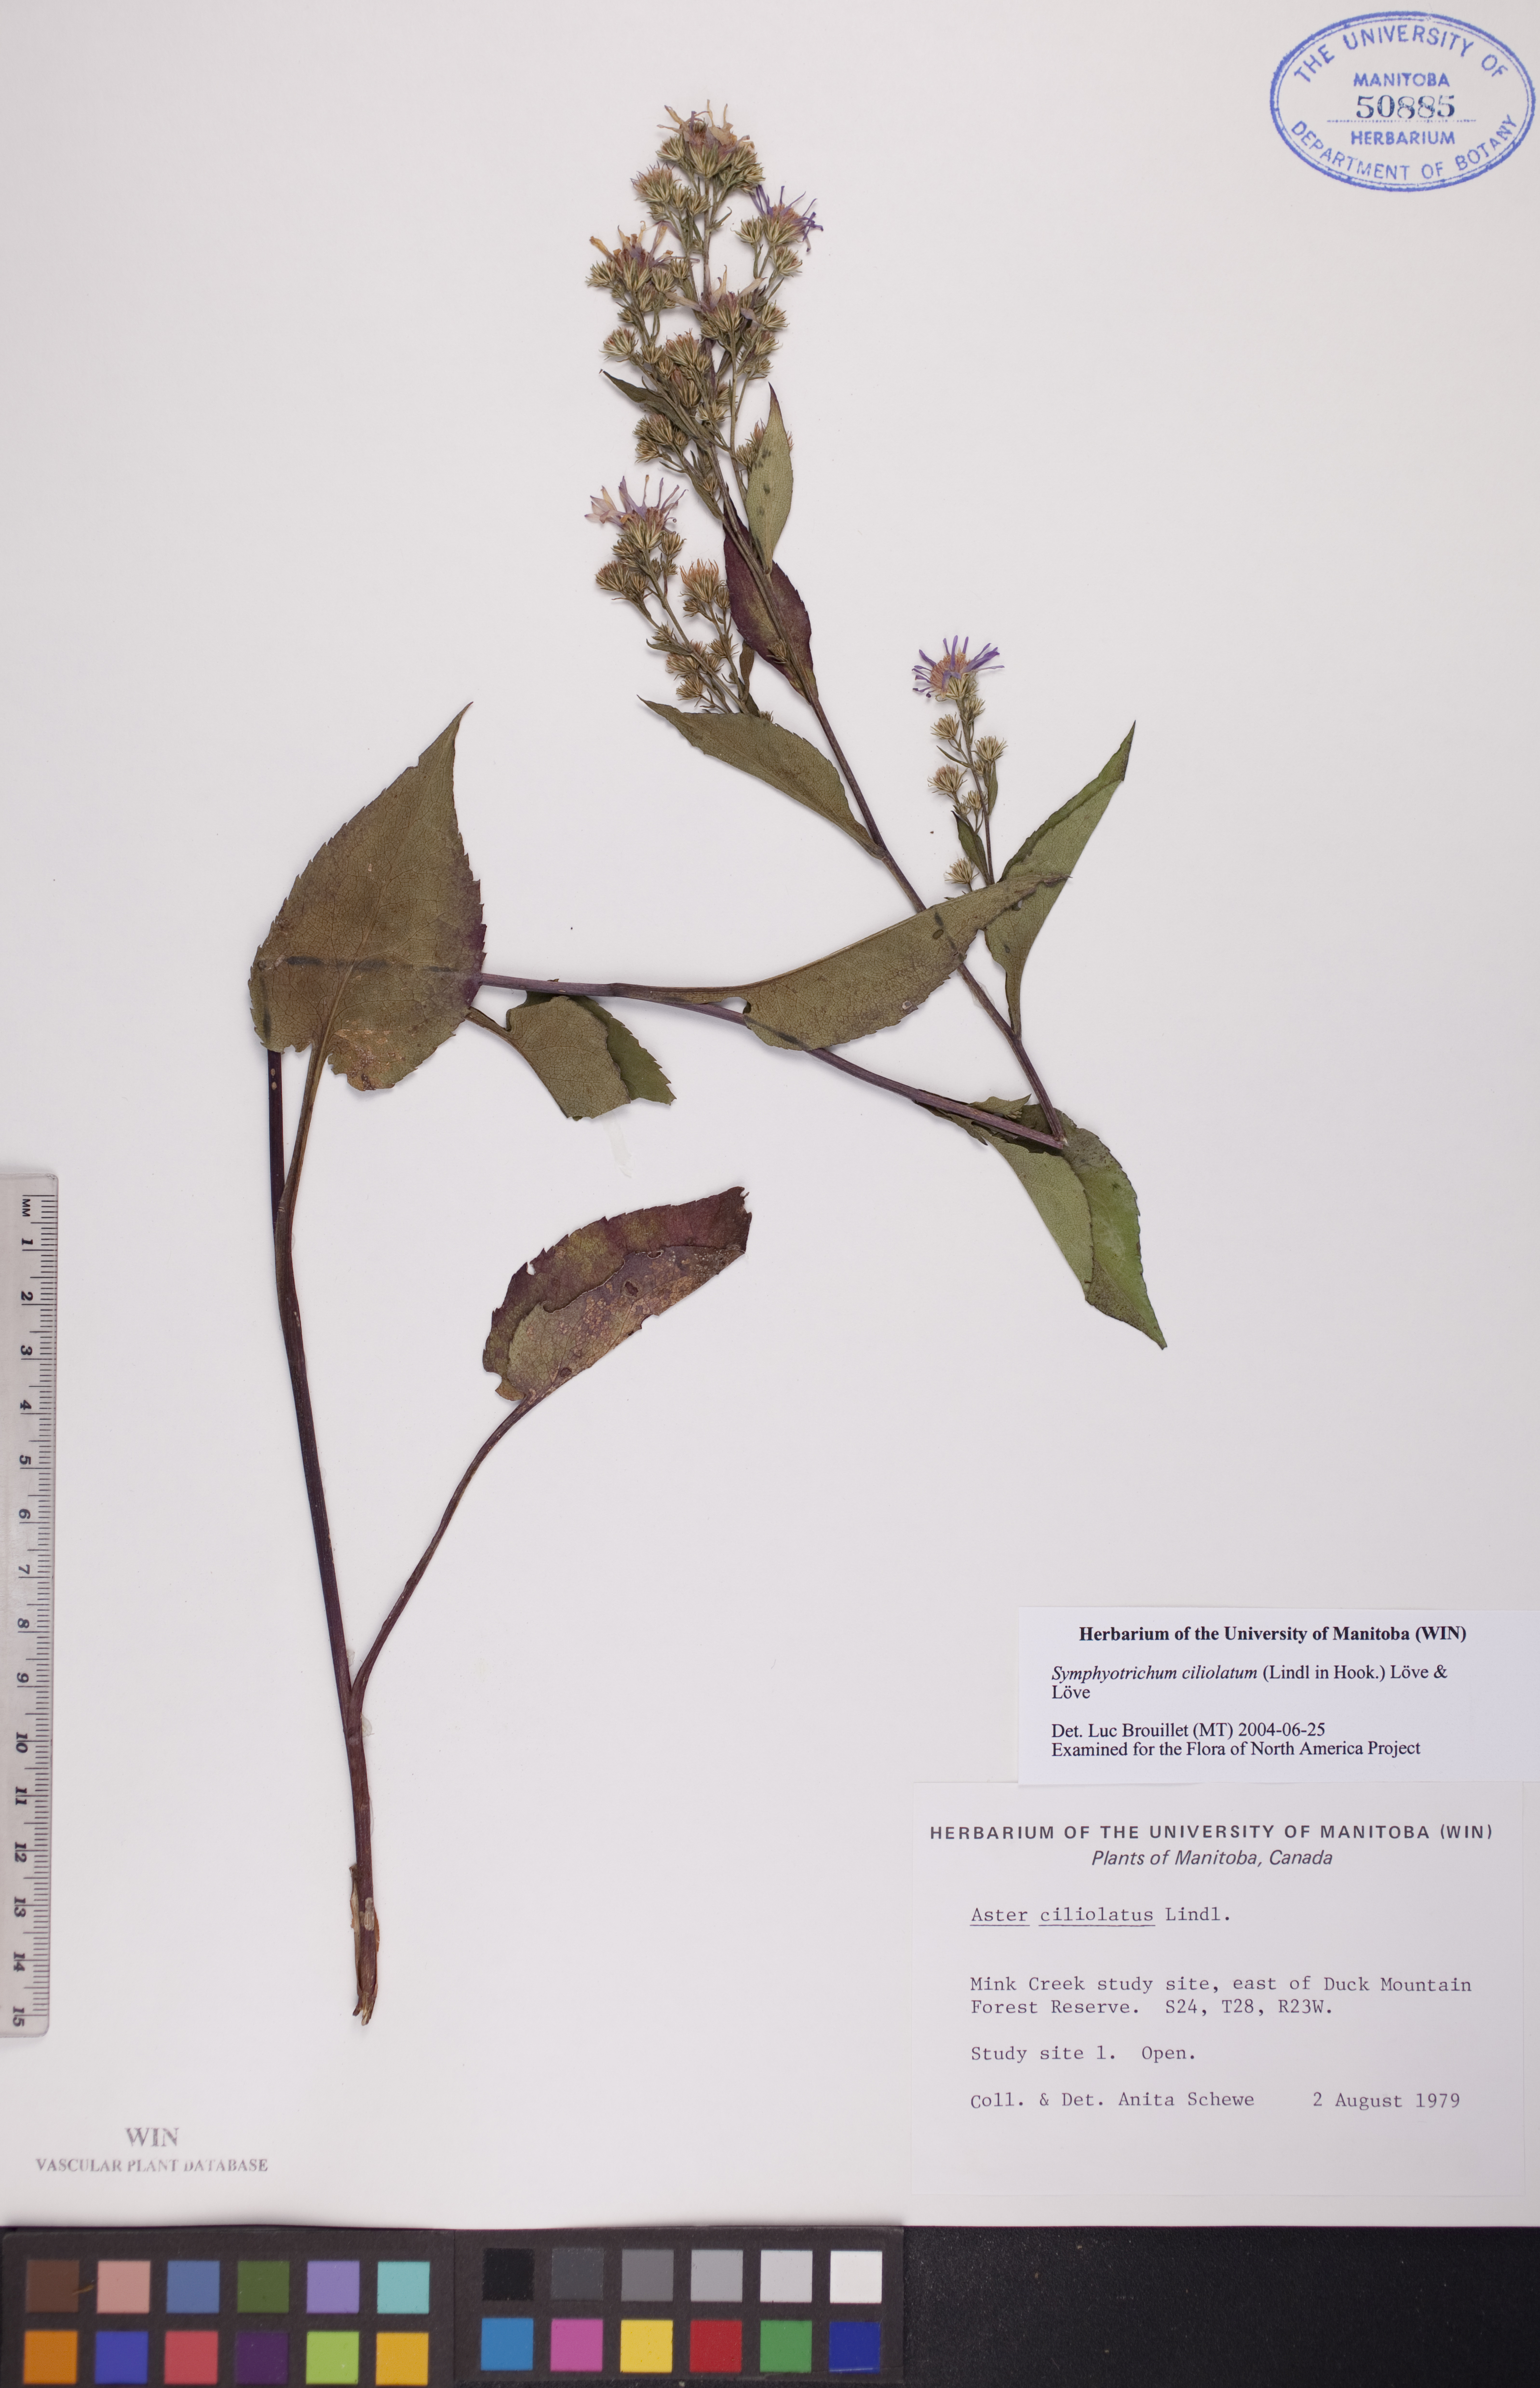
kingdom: Plantae
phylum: Tracheophyta
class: Magnoliopsida
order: Asterales
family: Asteraceae
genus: Symphyotrichum
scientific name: Symphyotrichum ciliolatum
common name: Fringed blue aster
